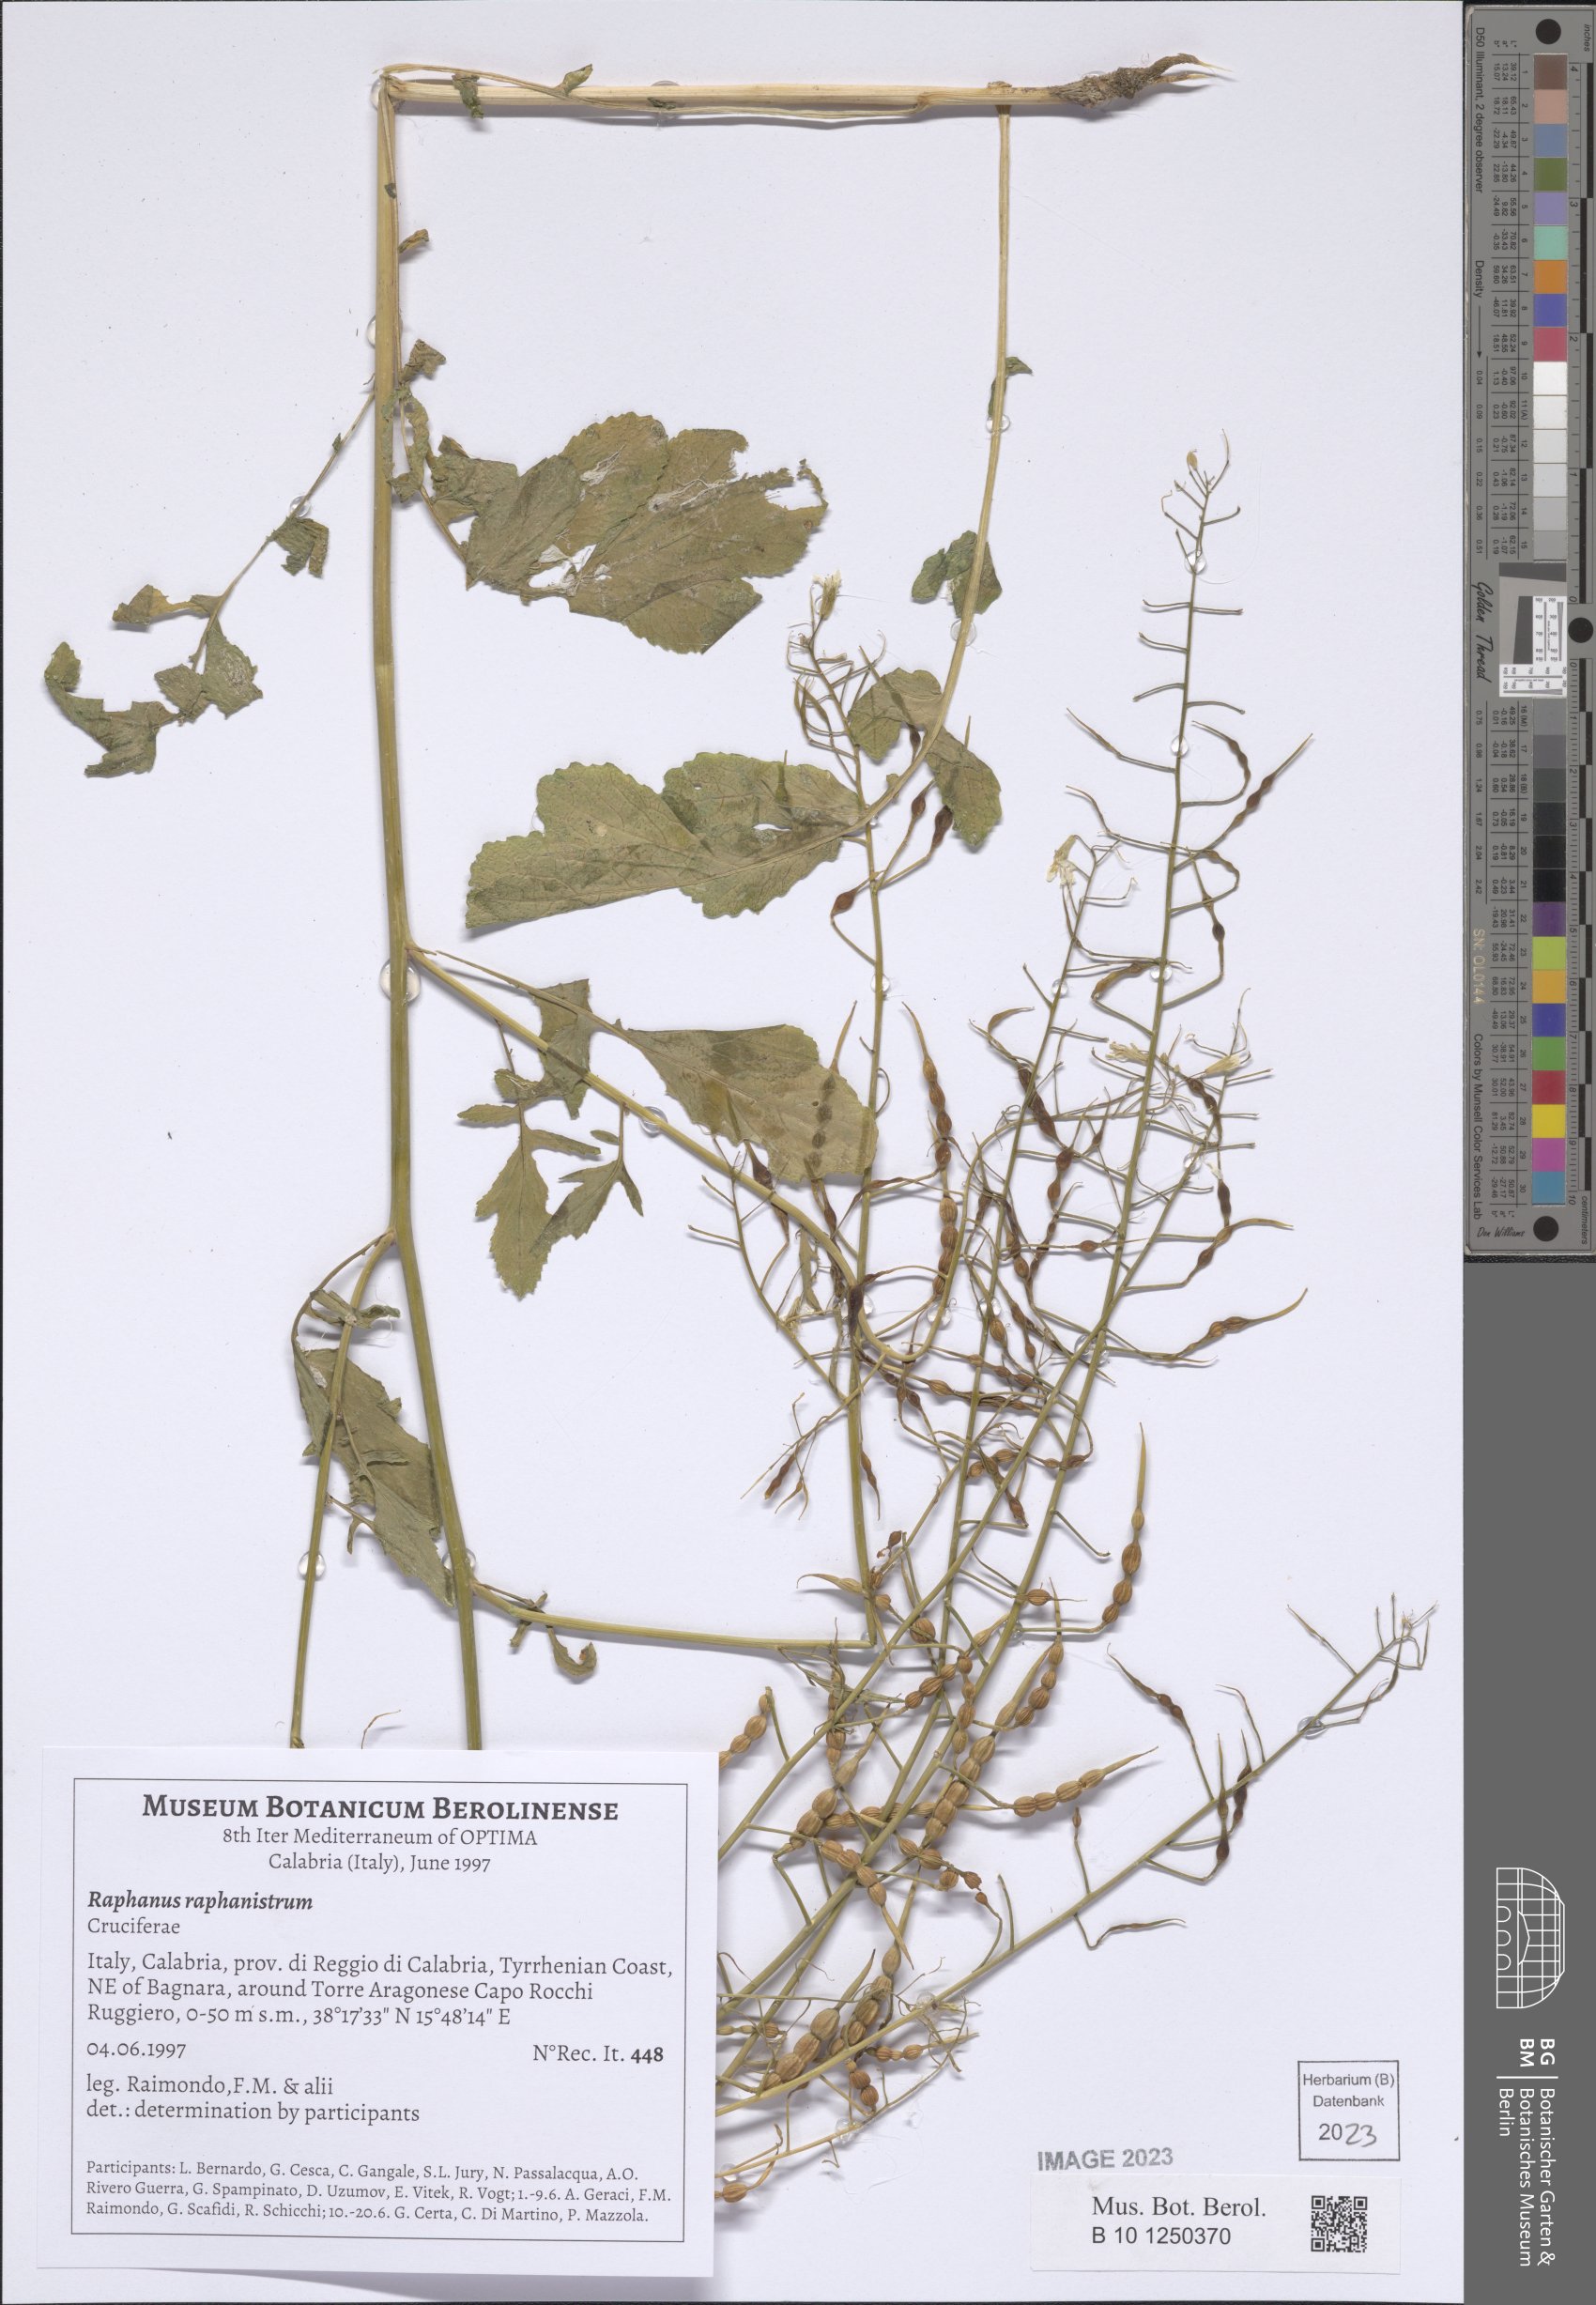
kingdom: Plantae
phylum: Tracheophyta
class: Magnoliopsida
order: Brassicales
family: Brassicaceae
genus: Raphanus
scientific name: Raphanus raphanistrum
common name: Wild radish
